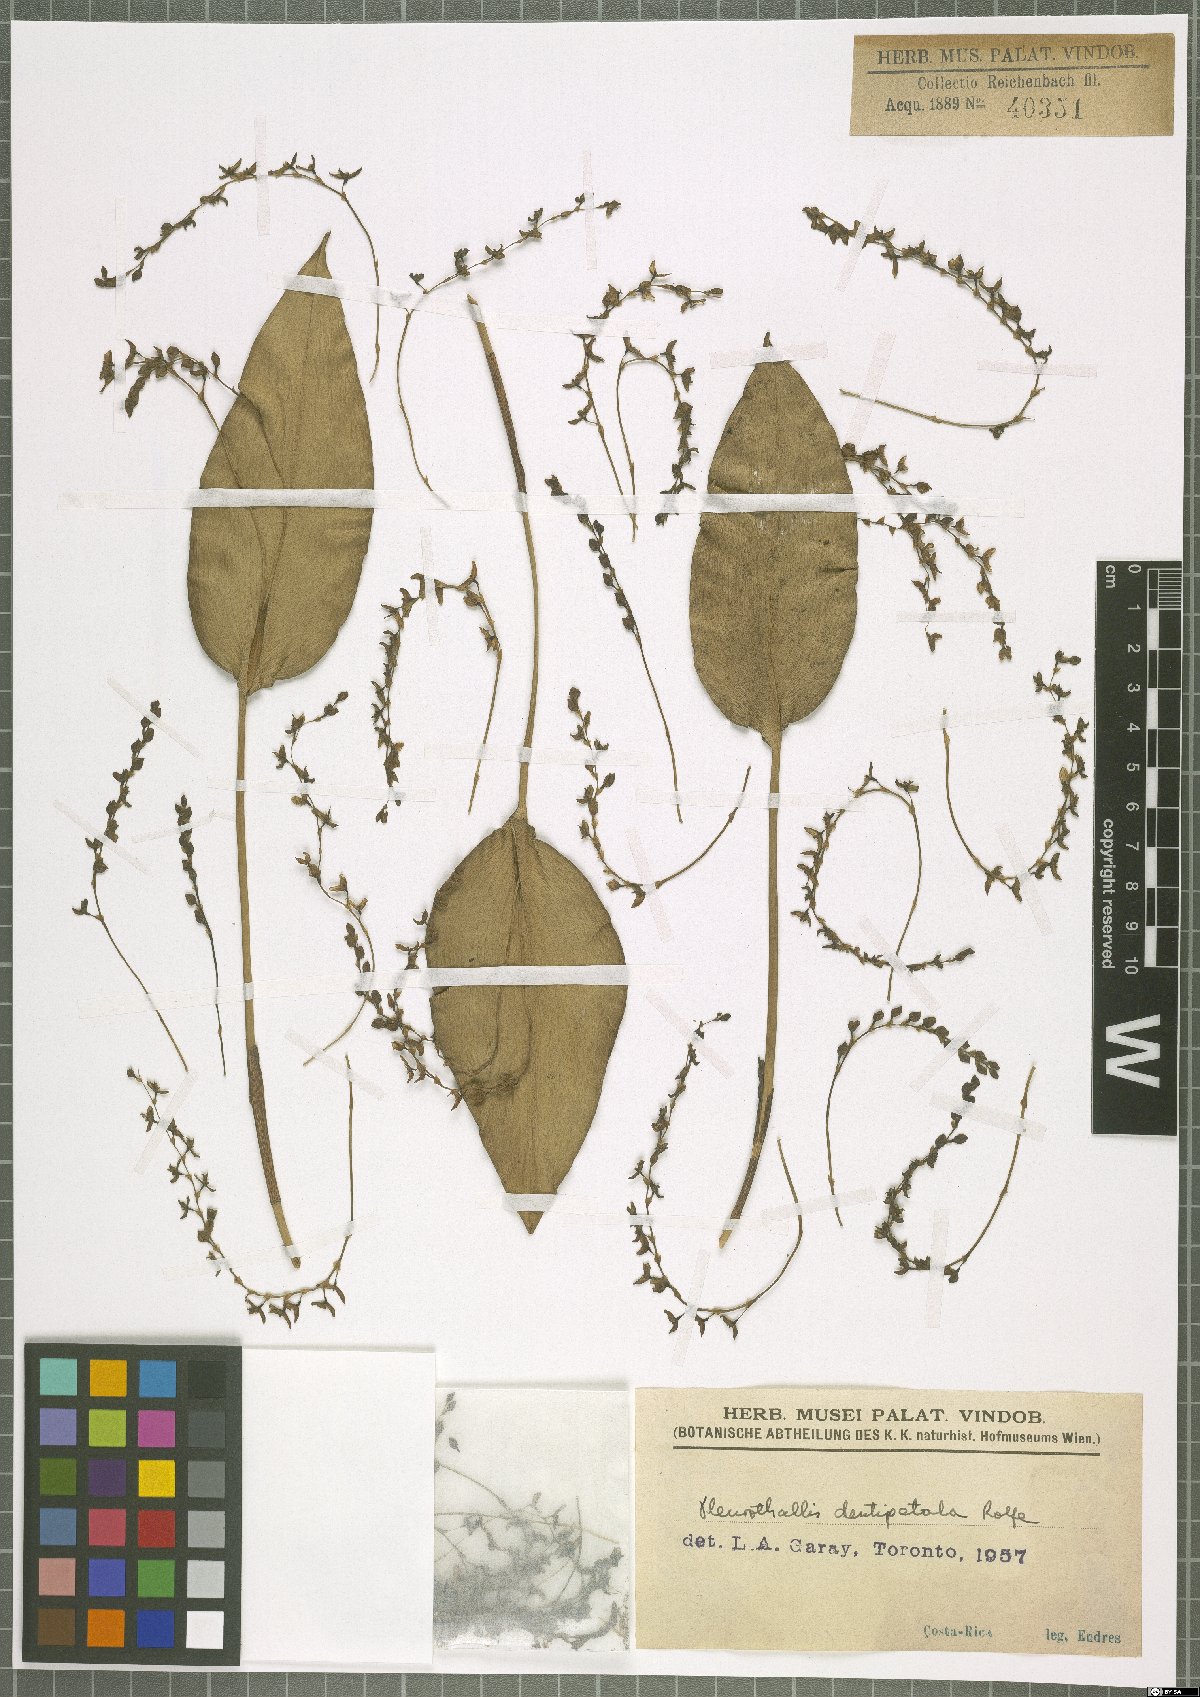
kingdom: Plantae
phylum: Tracheophyta
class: Liliopsida
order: Asparagales
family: Orchidaceae
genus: Pleurothallis
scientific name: Pleurothallis dentipetala
